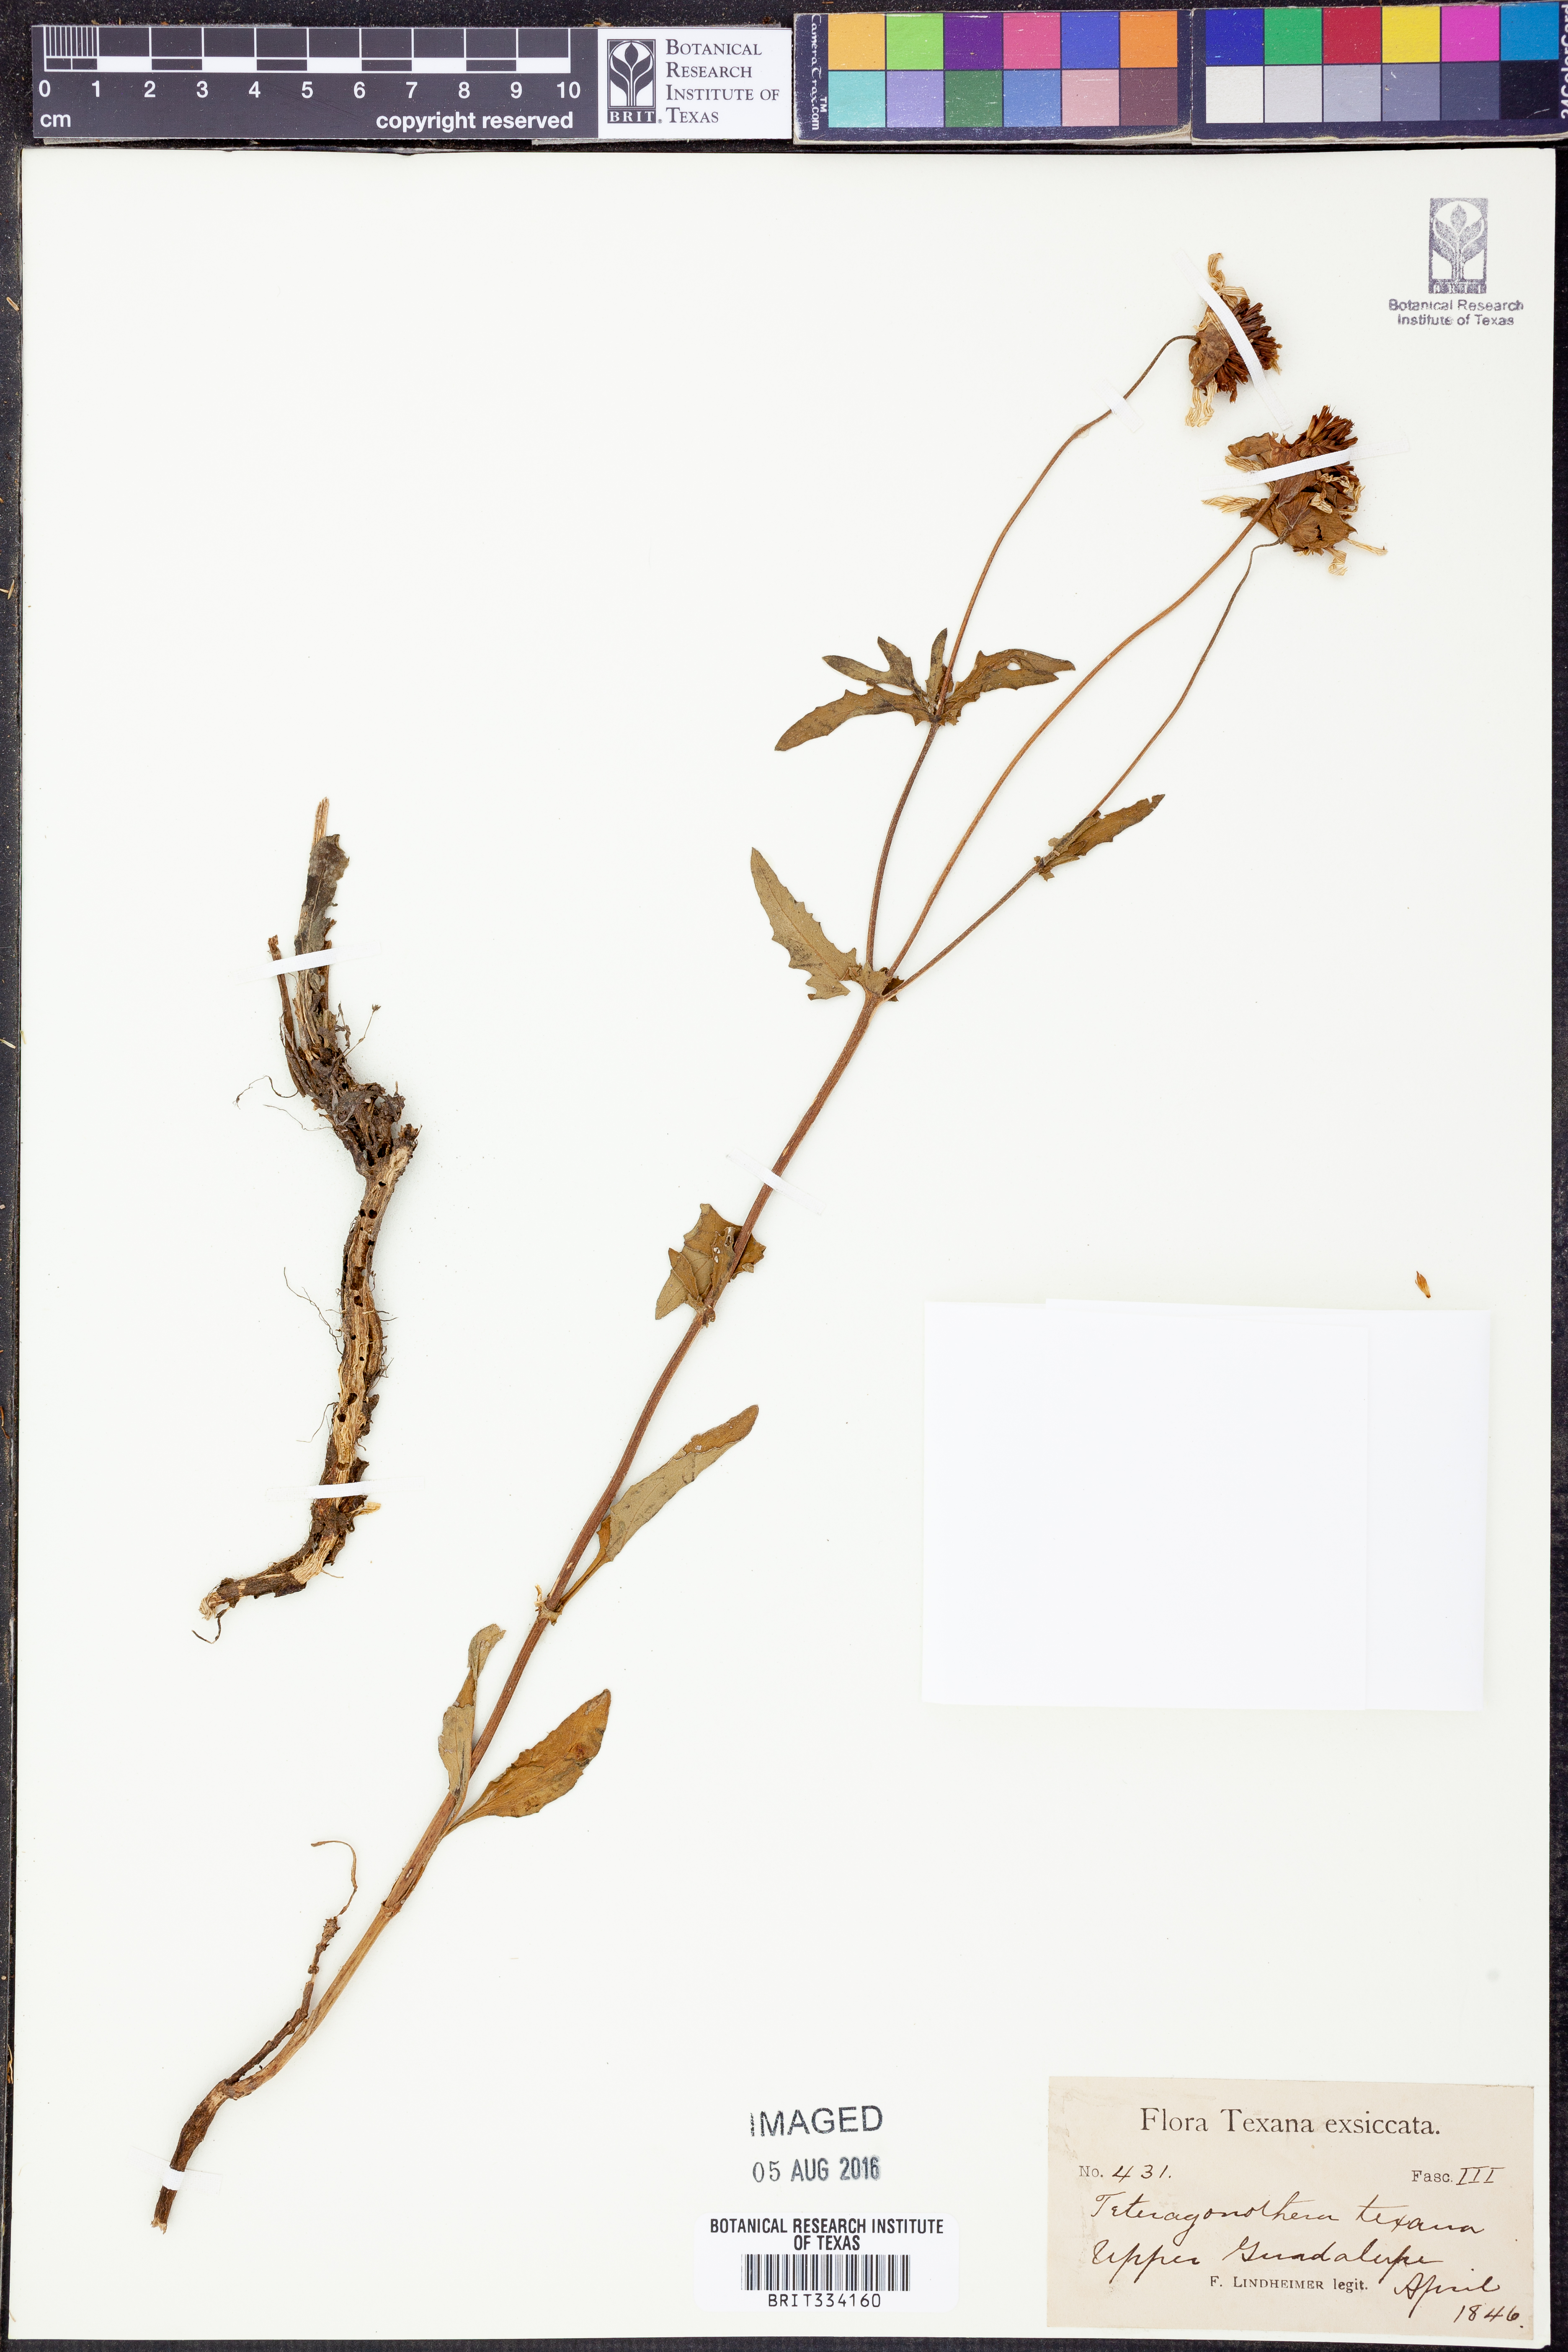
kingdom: Plantae
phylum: Tracheophyta
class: Magnoliopsida
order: Asterales
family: Asteraceae
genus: Tetragonotheca
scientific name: Tetragonotheca texana
